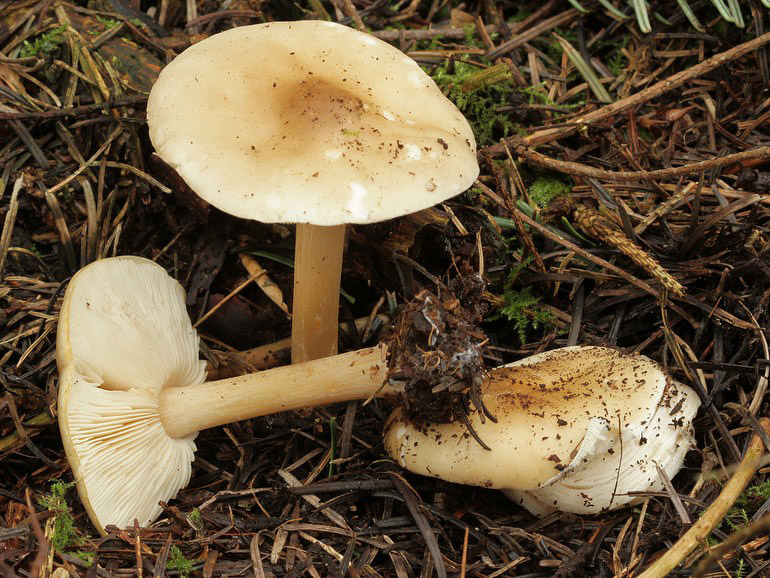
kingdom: Fungi
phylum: Basidiomycota
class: Agaricomycetes
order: Agaricales
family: Tricholomataceae
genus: Melanoleuca
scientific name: Melanoleuca cognata
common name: gyldengrå munkehat
